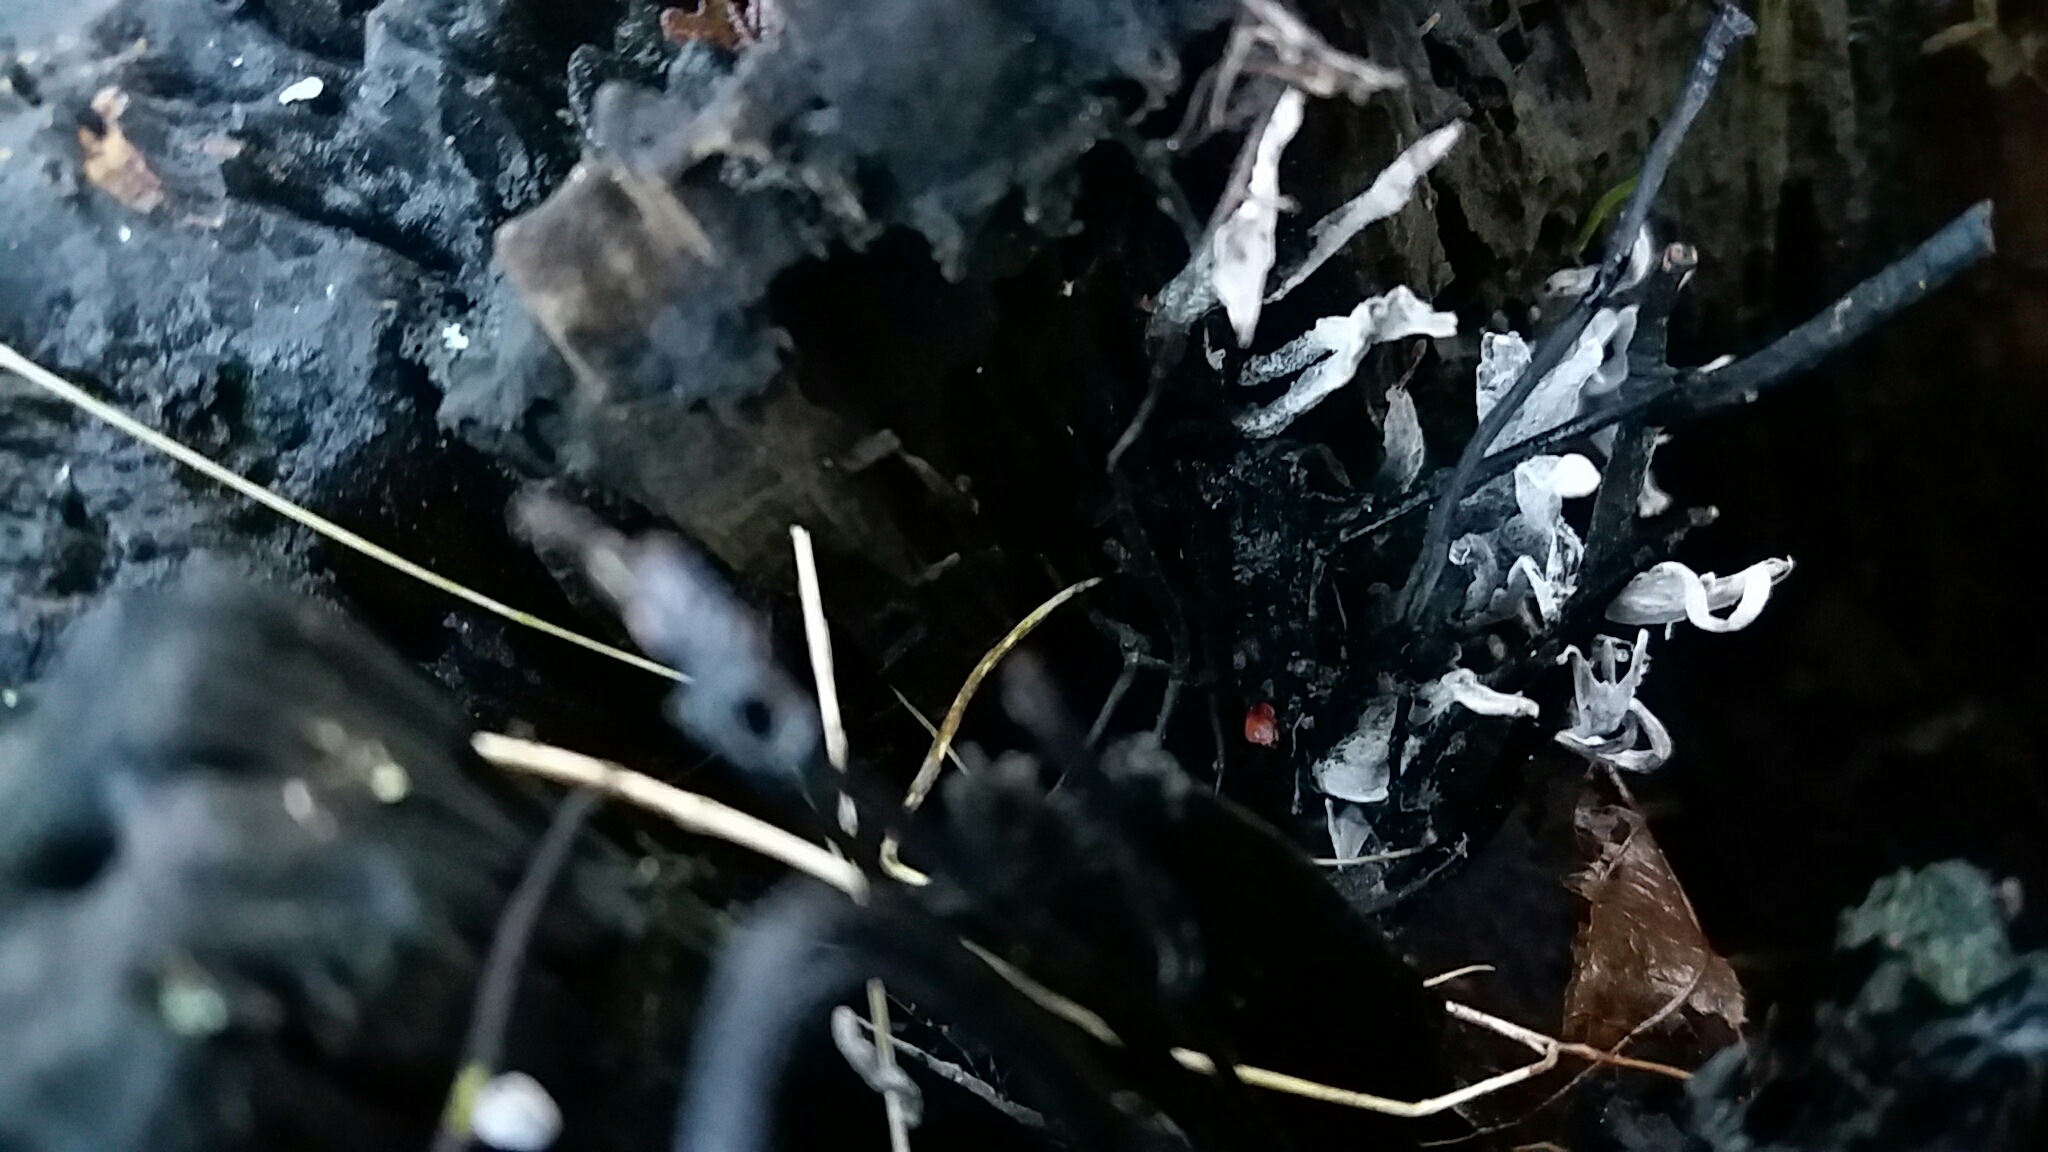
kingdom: Fungi
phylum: Ascomycota
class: Sordariomycetes
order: Xylariales
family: Xylariaceae
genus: Xylaria
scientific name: Xylaria hypoxylon
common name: grenet stødsvamp
